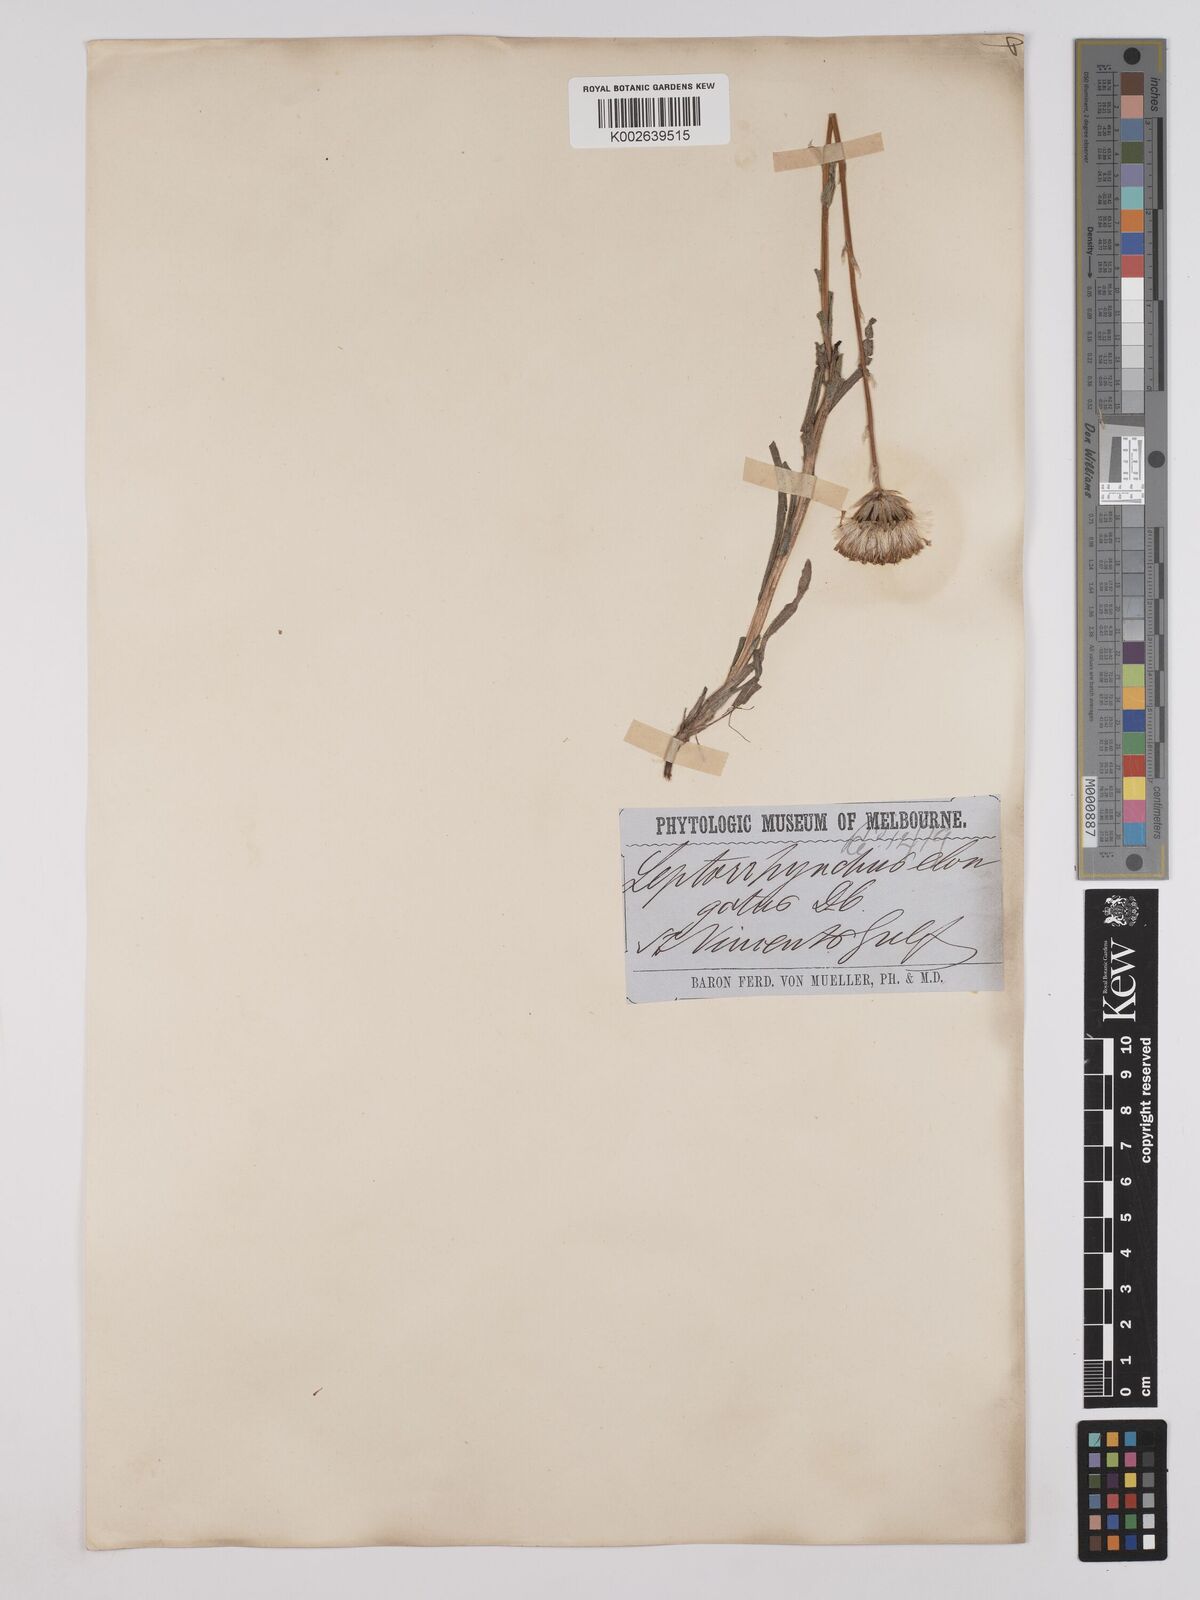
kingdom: Plantae
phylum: Tracheophyta
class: Magnoliopsida
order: Asterales
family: Asteraceae
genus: Leptorhynchos
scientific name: Leptorhynchos elongatus
